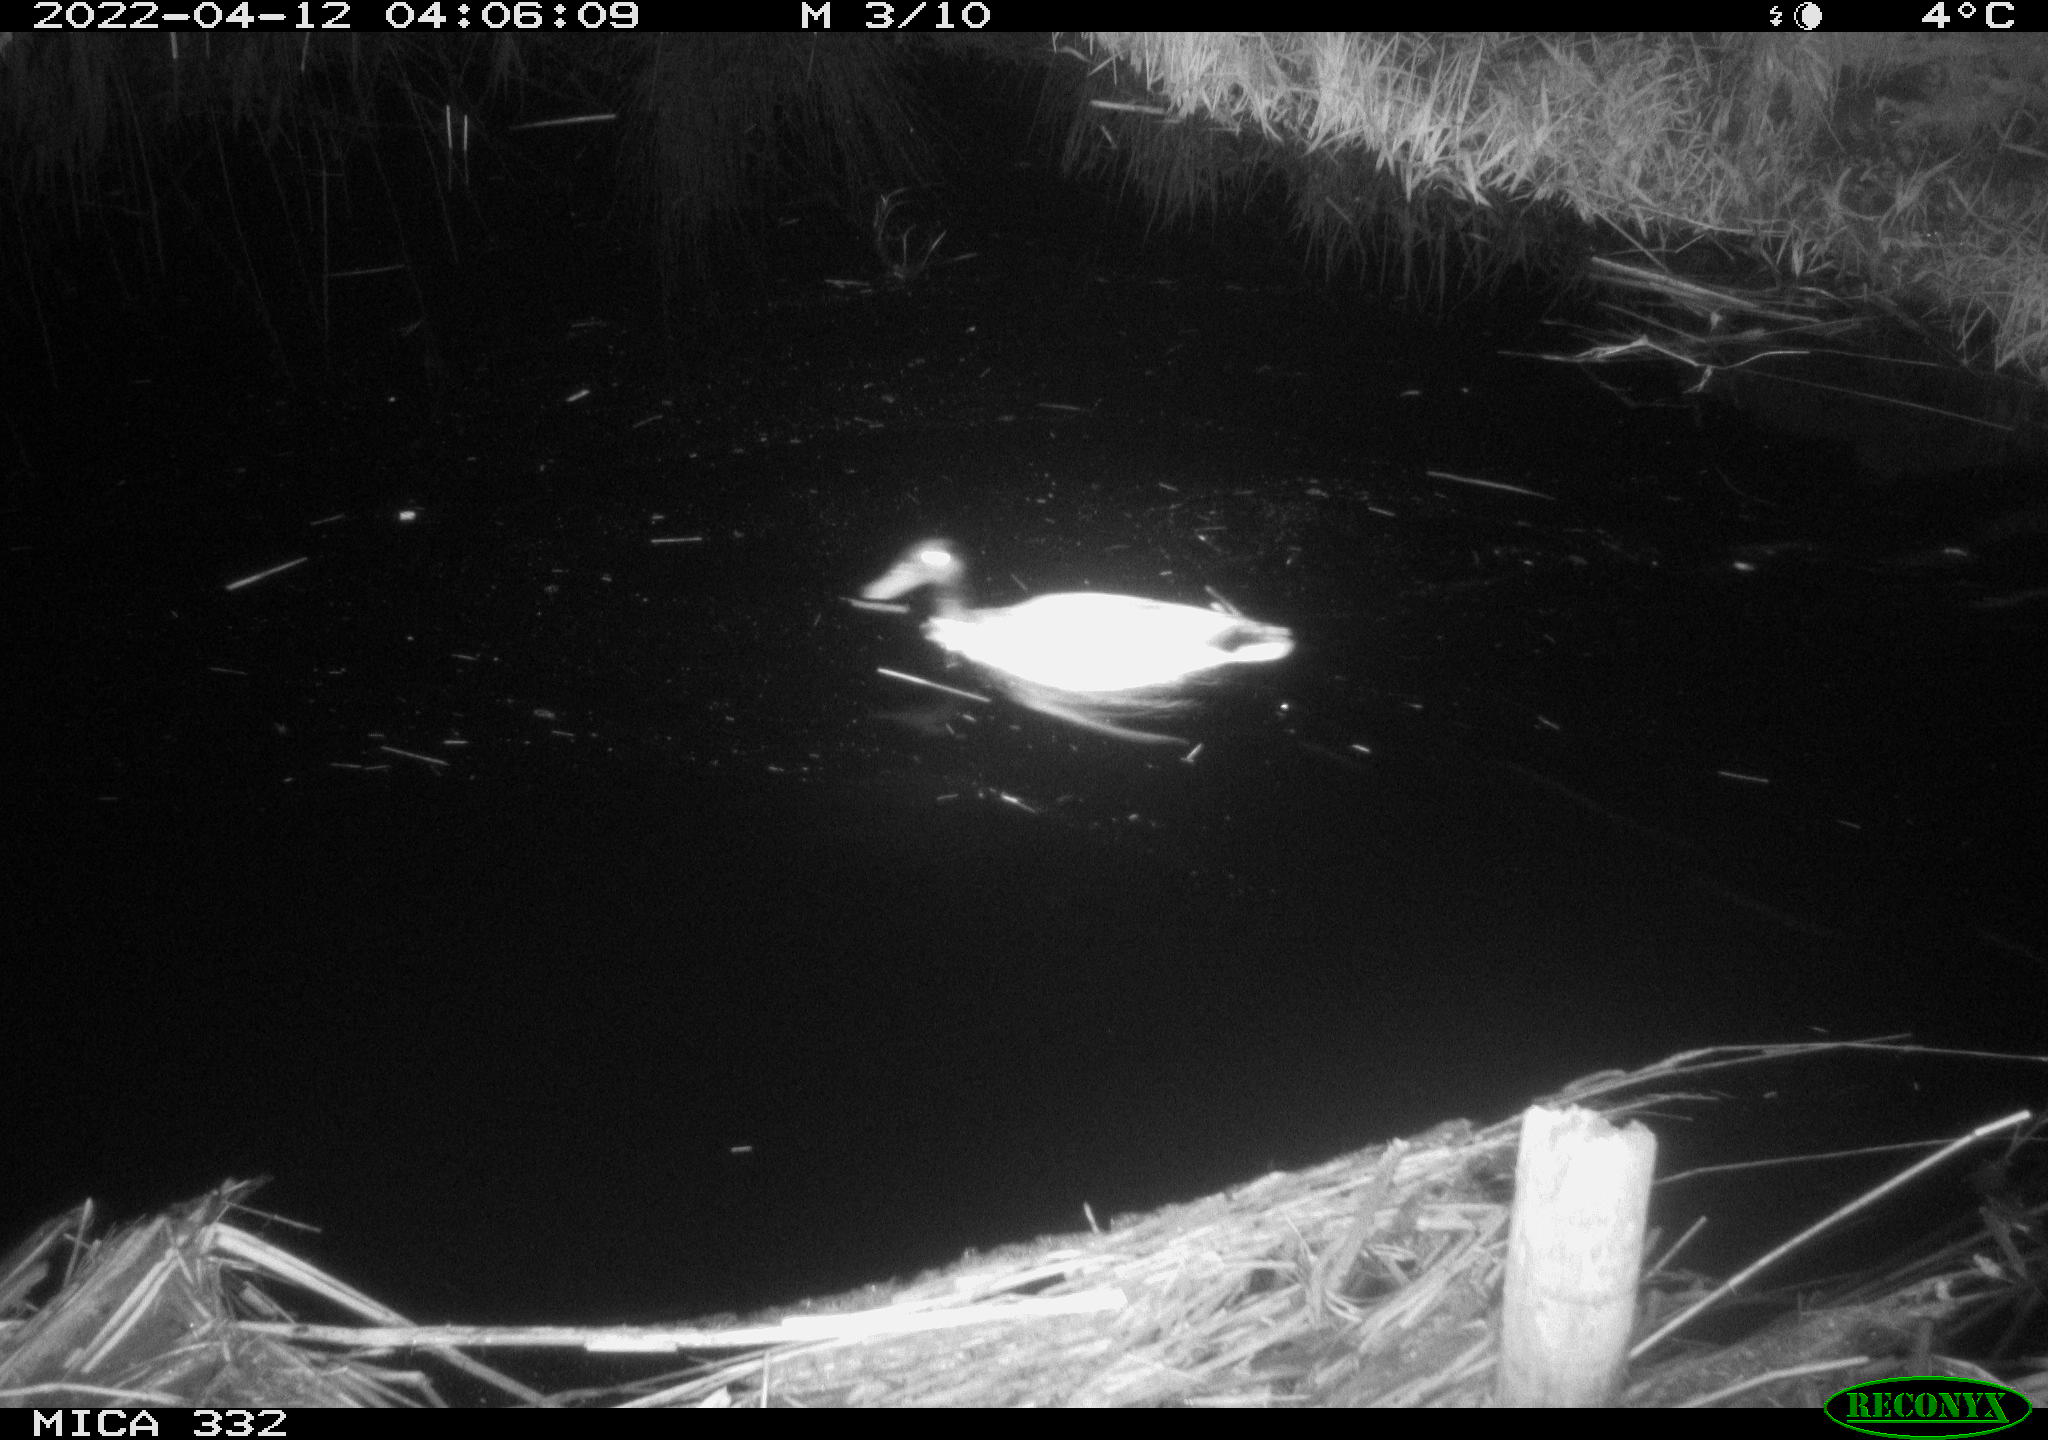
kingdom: Animalia
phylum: Chordata
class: Aves
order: Anseriformes
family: Anatidae
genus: Anas
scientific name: Anas platyrhynchos
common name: Mallard
